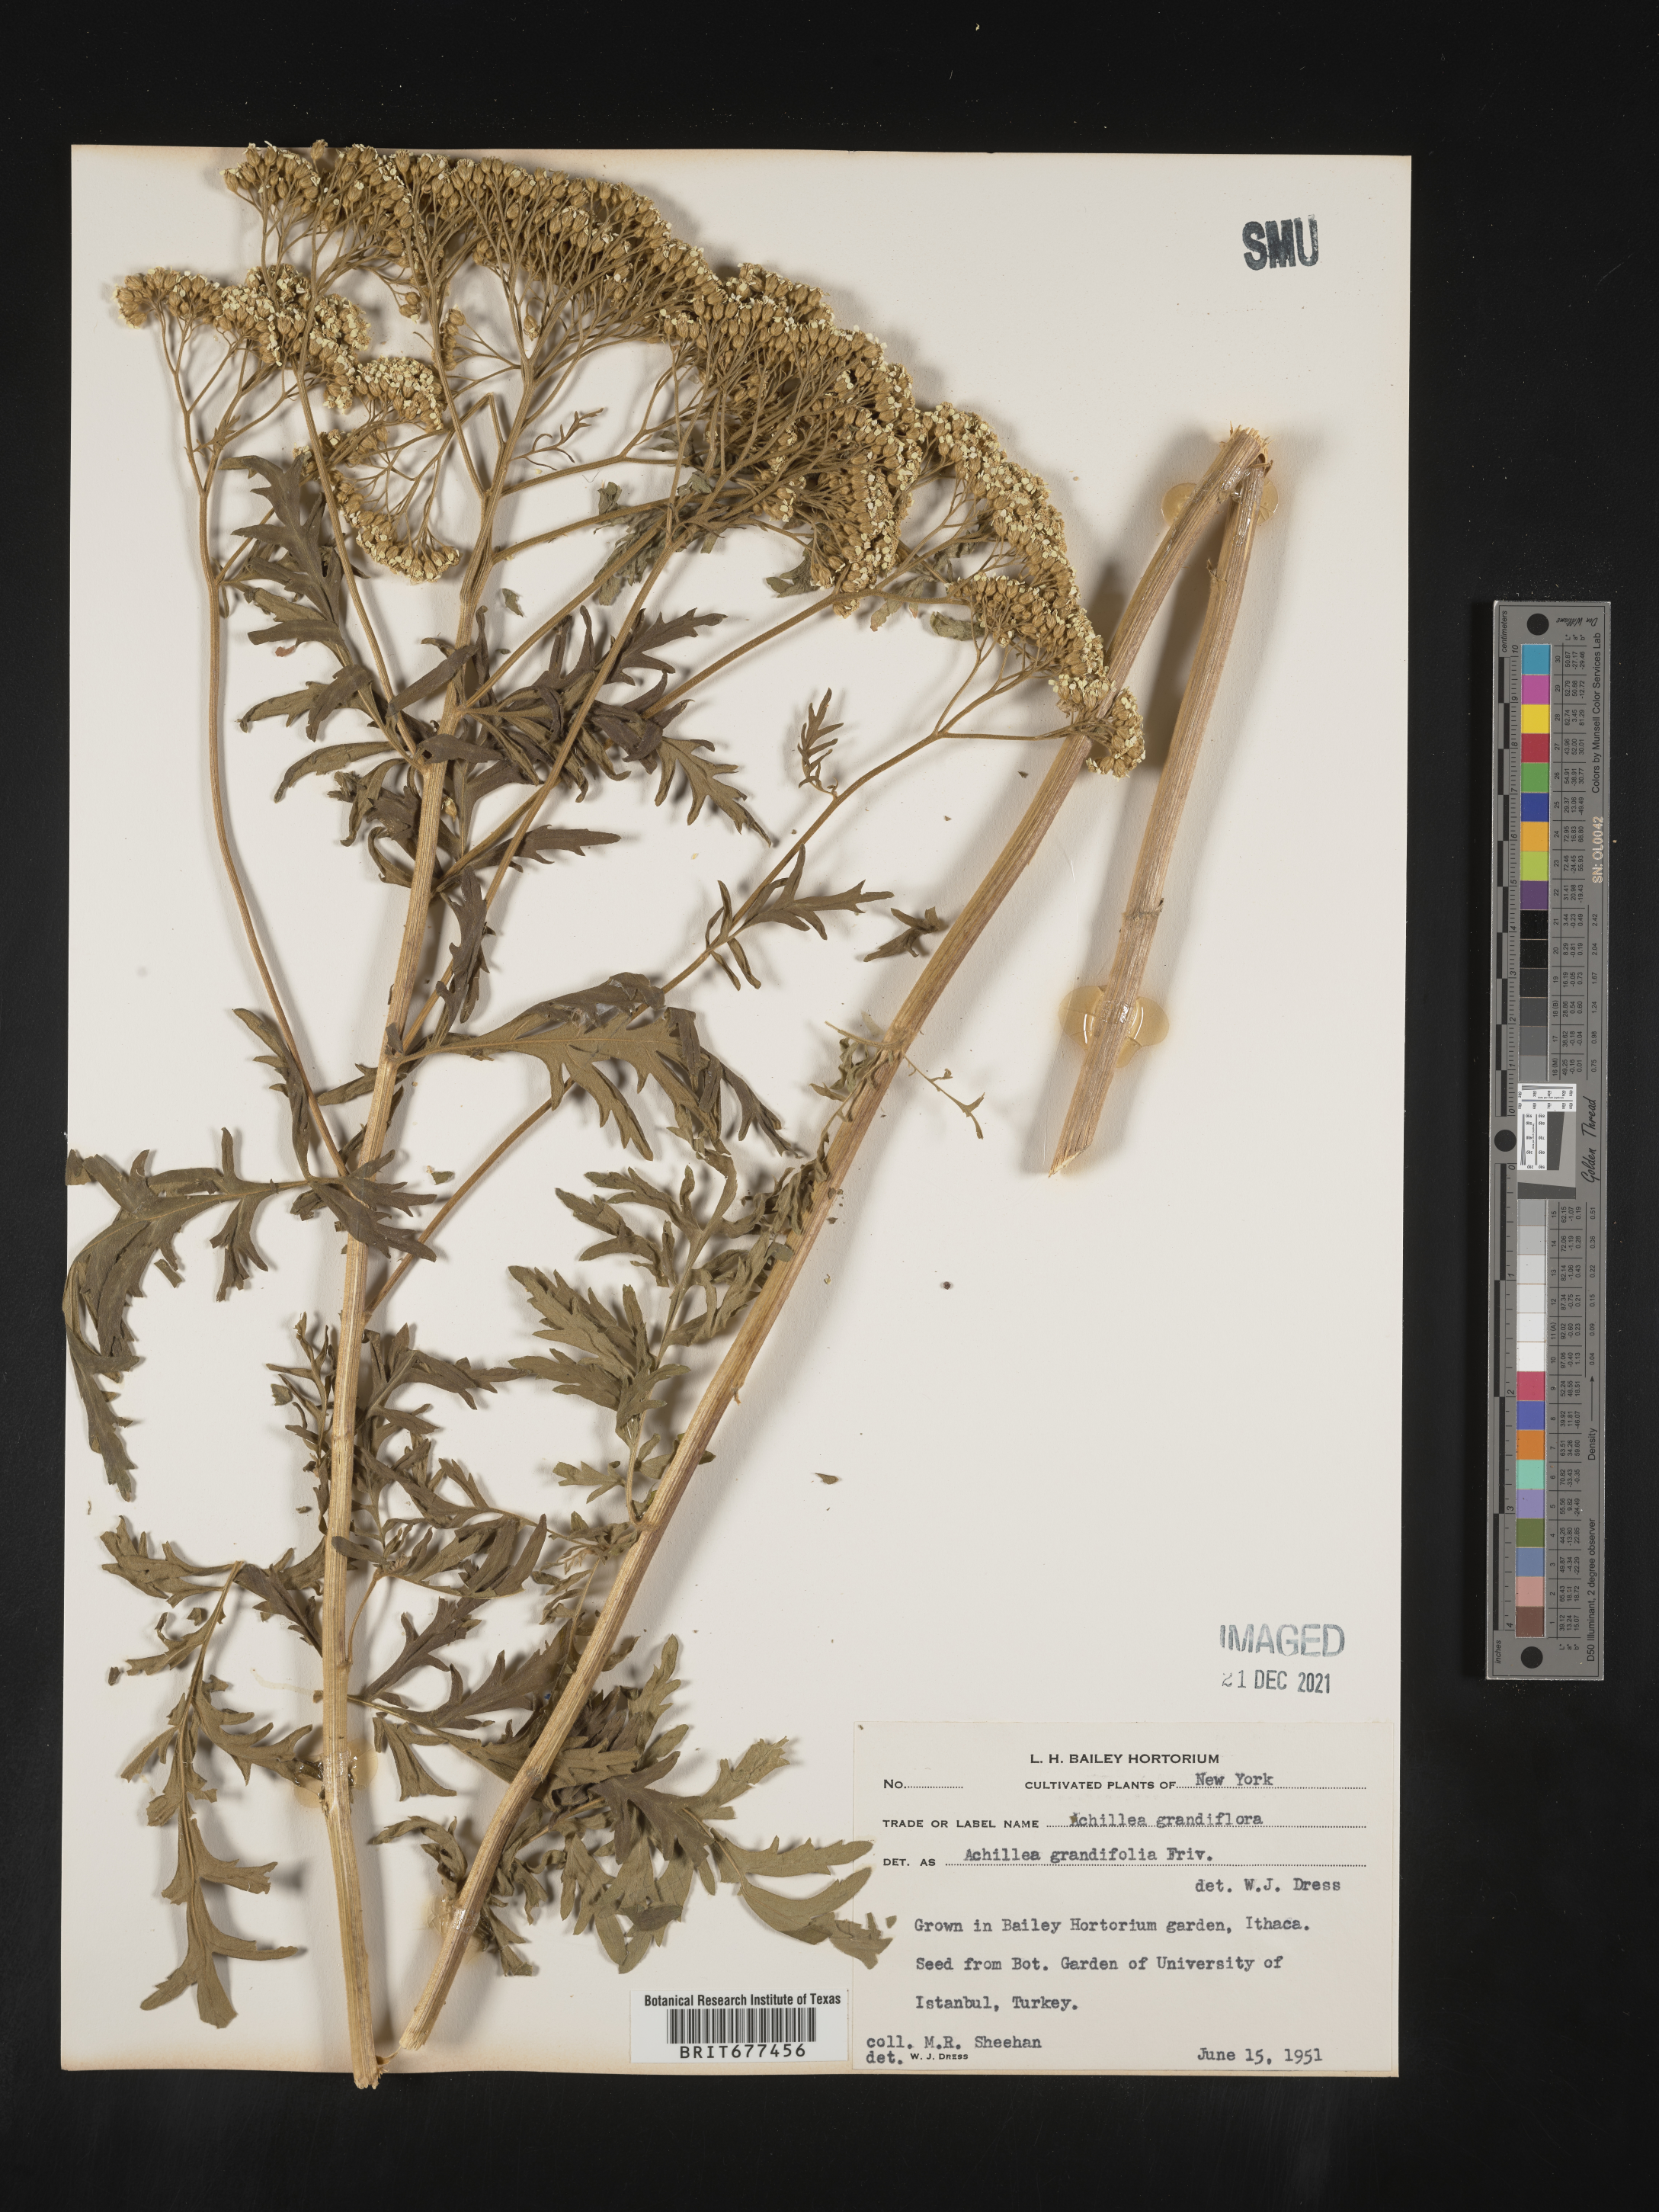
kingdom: Plantae
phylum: Tracheophyta
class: Magnoliopsida
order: Asterales
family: Asteraceae
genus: Achillea
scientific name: Achillea
